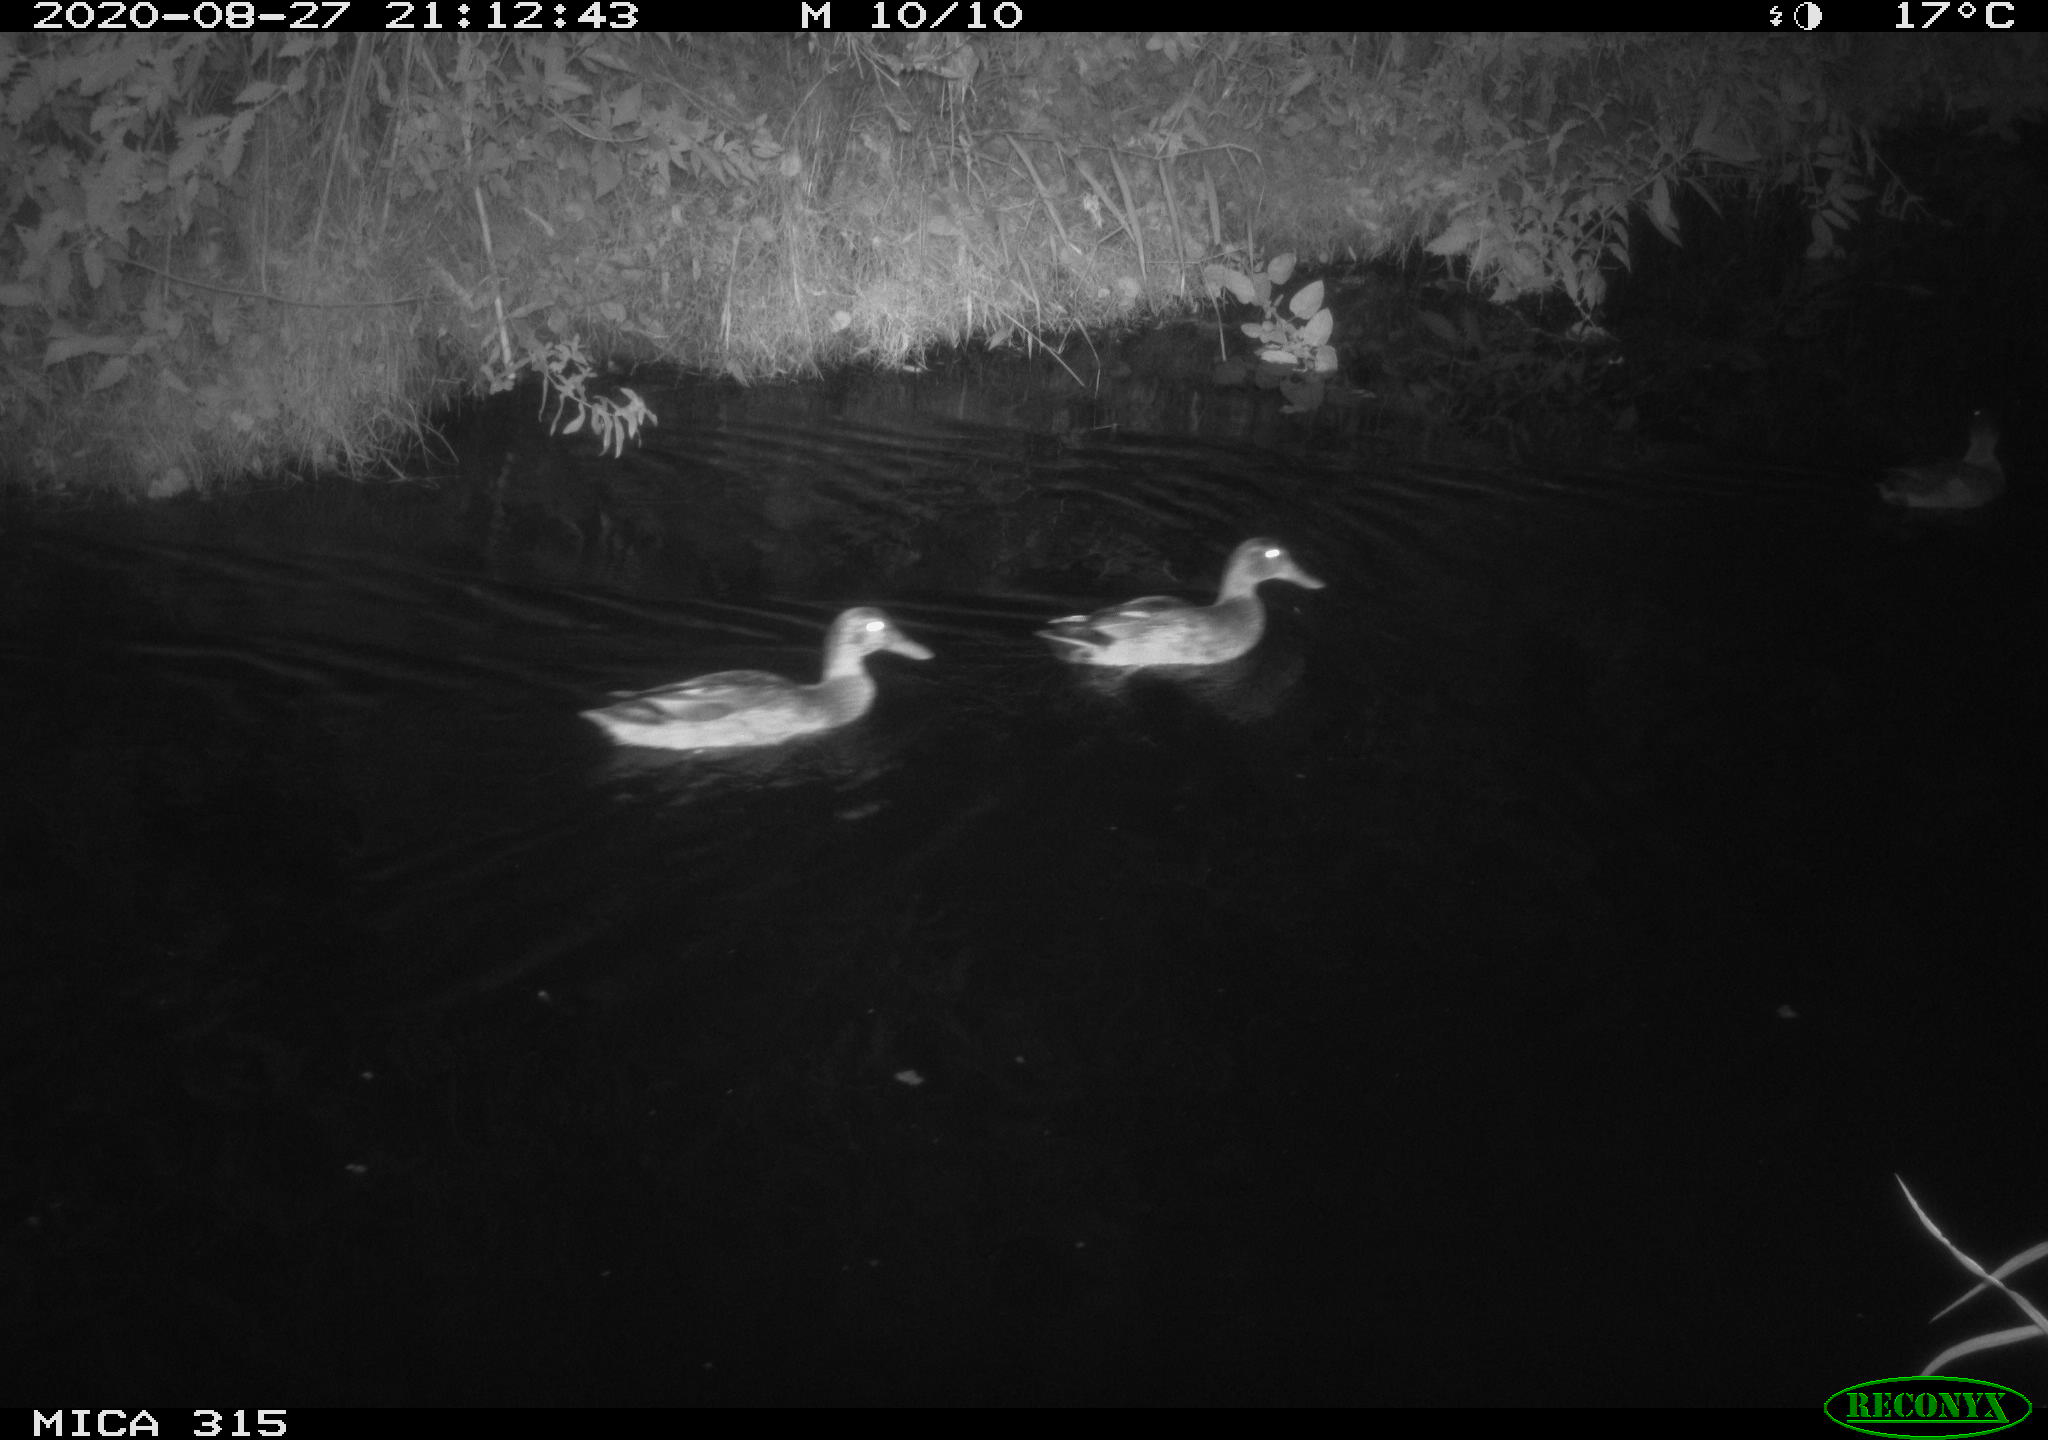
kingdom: Animalia
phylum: Chordata
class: Aves
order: Anseriformes
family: Anatidae
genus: Anas
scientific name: Anas platyrhynchos
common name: Mallard
